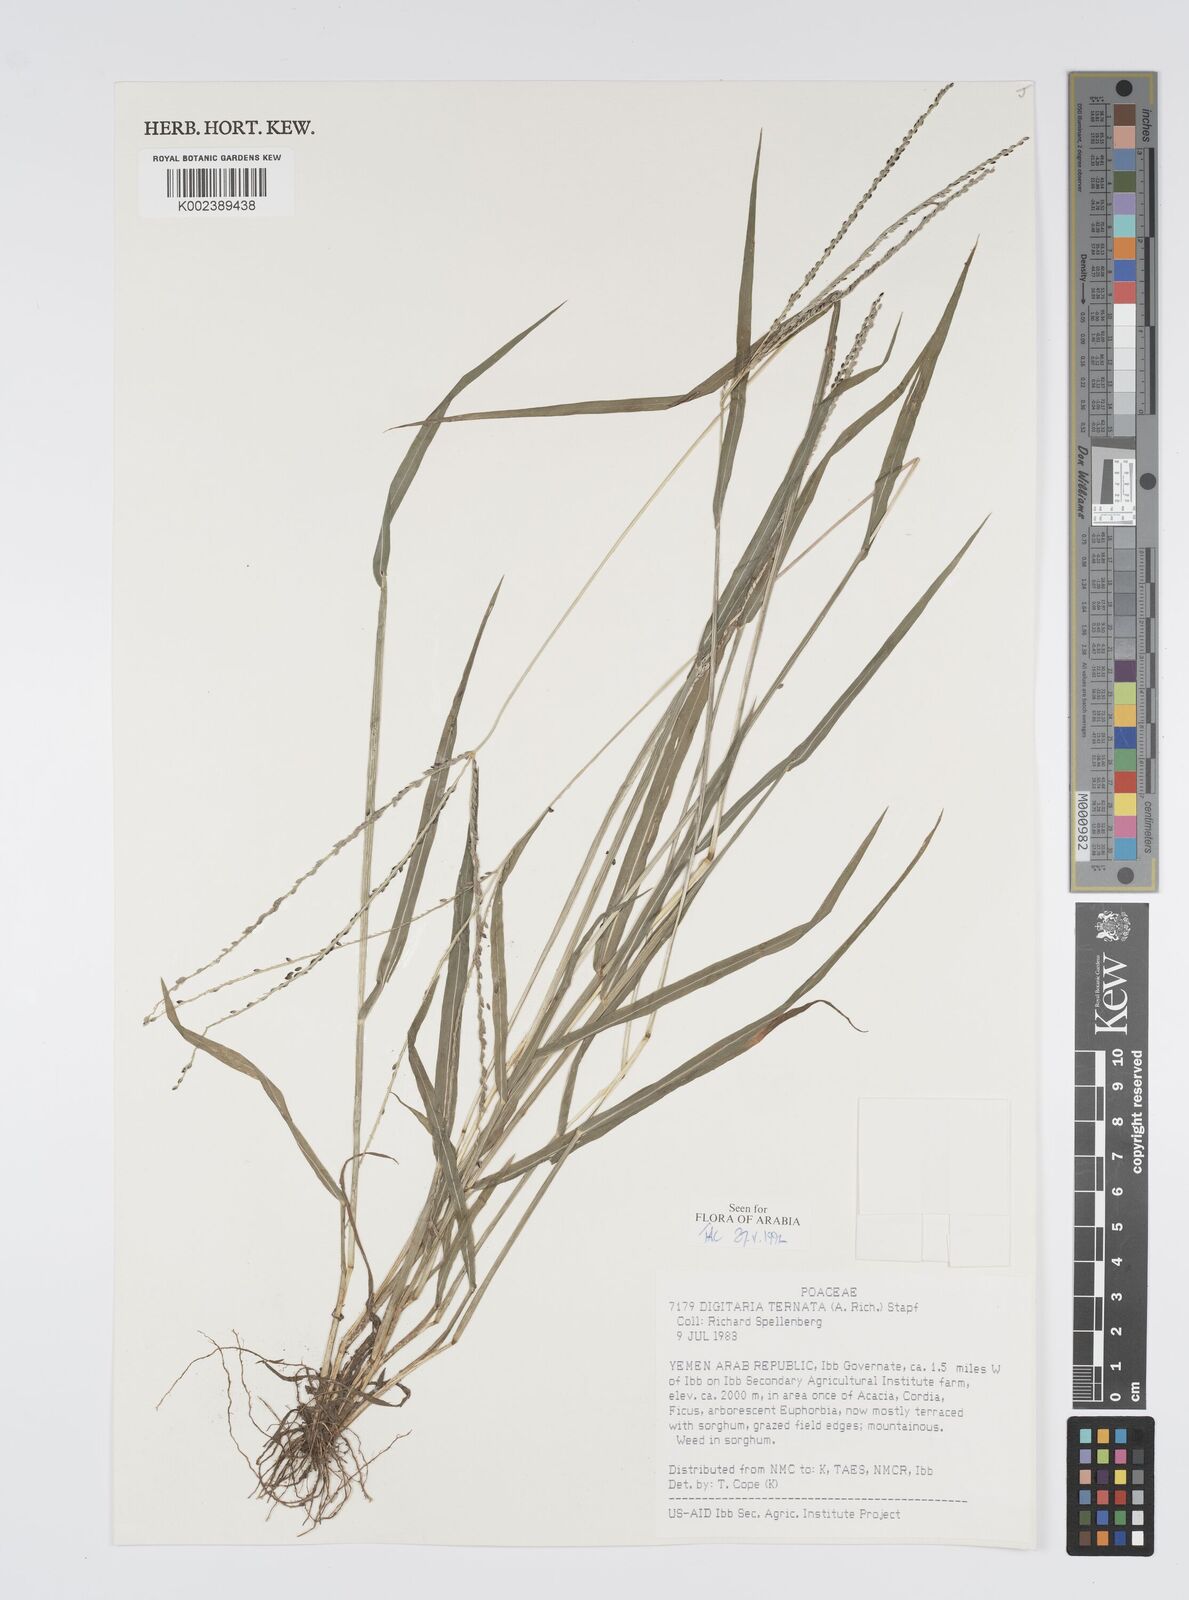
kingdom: Plantae
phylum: Tracheophyta
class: Liliopsida
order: Poales
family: Poaceae
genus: Digitaria
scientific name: Digitaria ternata
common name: Blackseed crabgrass
